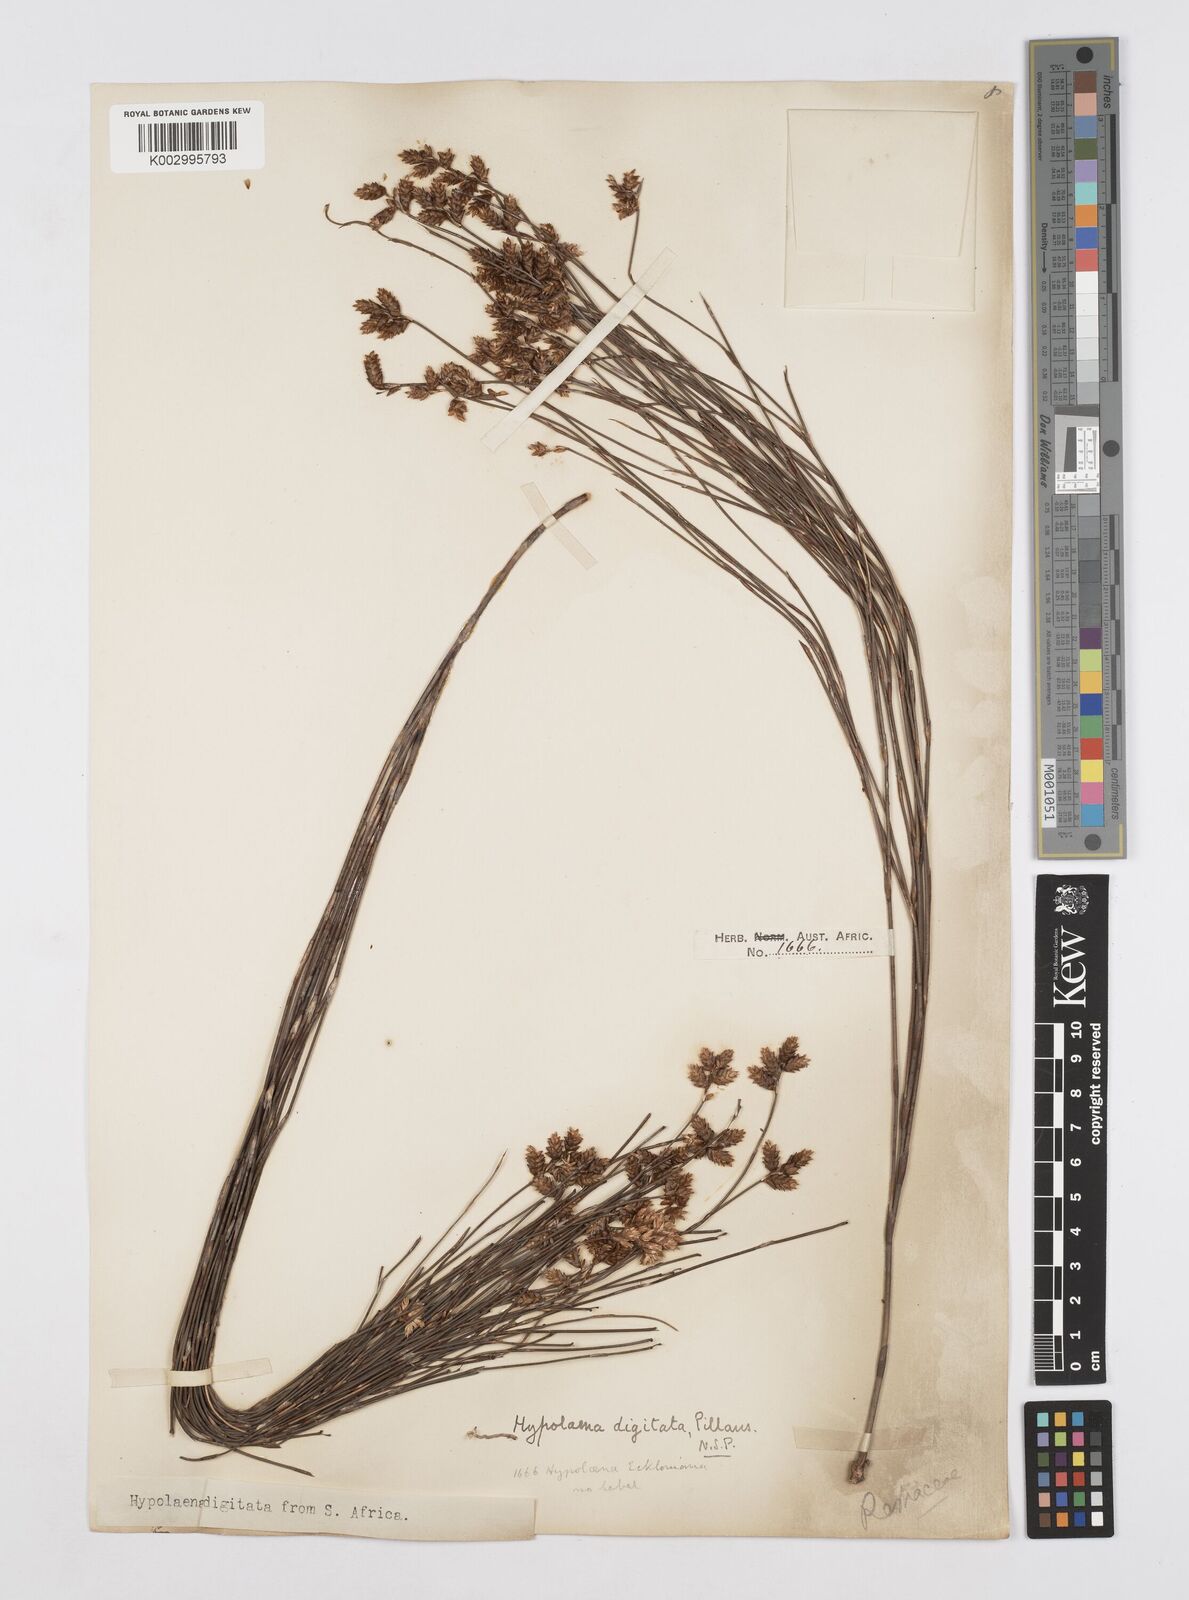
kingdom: Plantae
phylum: Tracheophyta
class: Liliopsida
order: Poales
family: Restionaceae
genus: Mastersiella
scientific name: Mastersiella digitata
